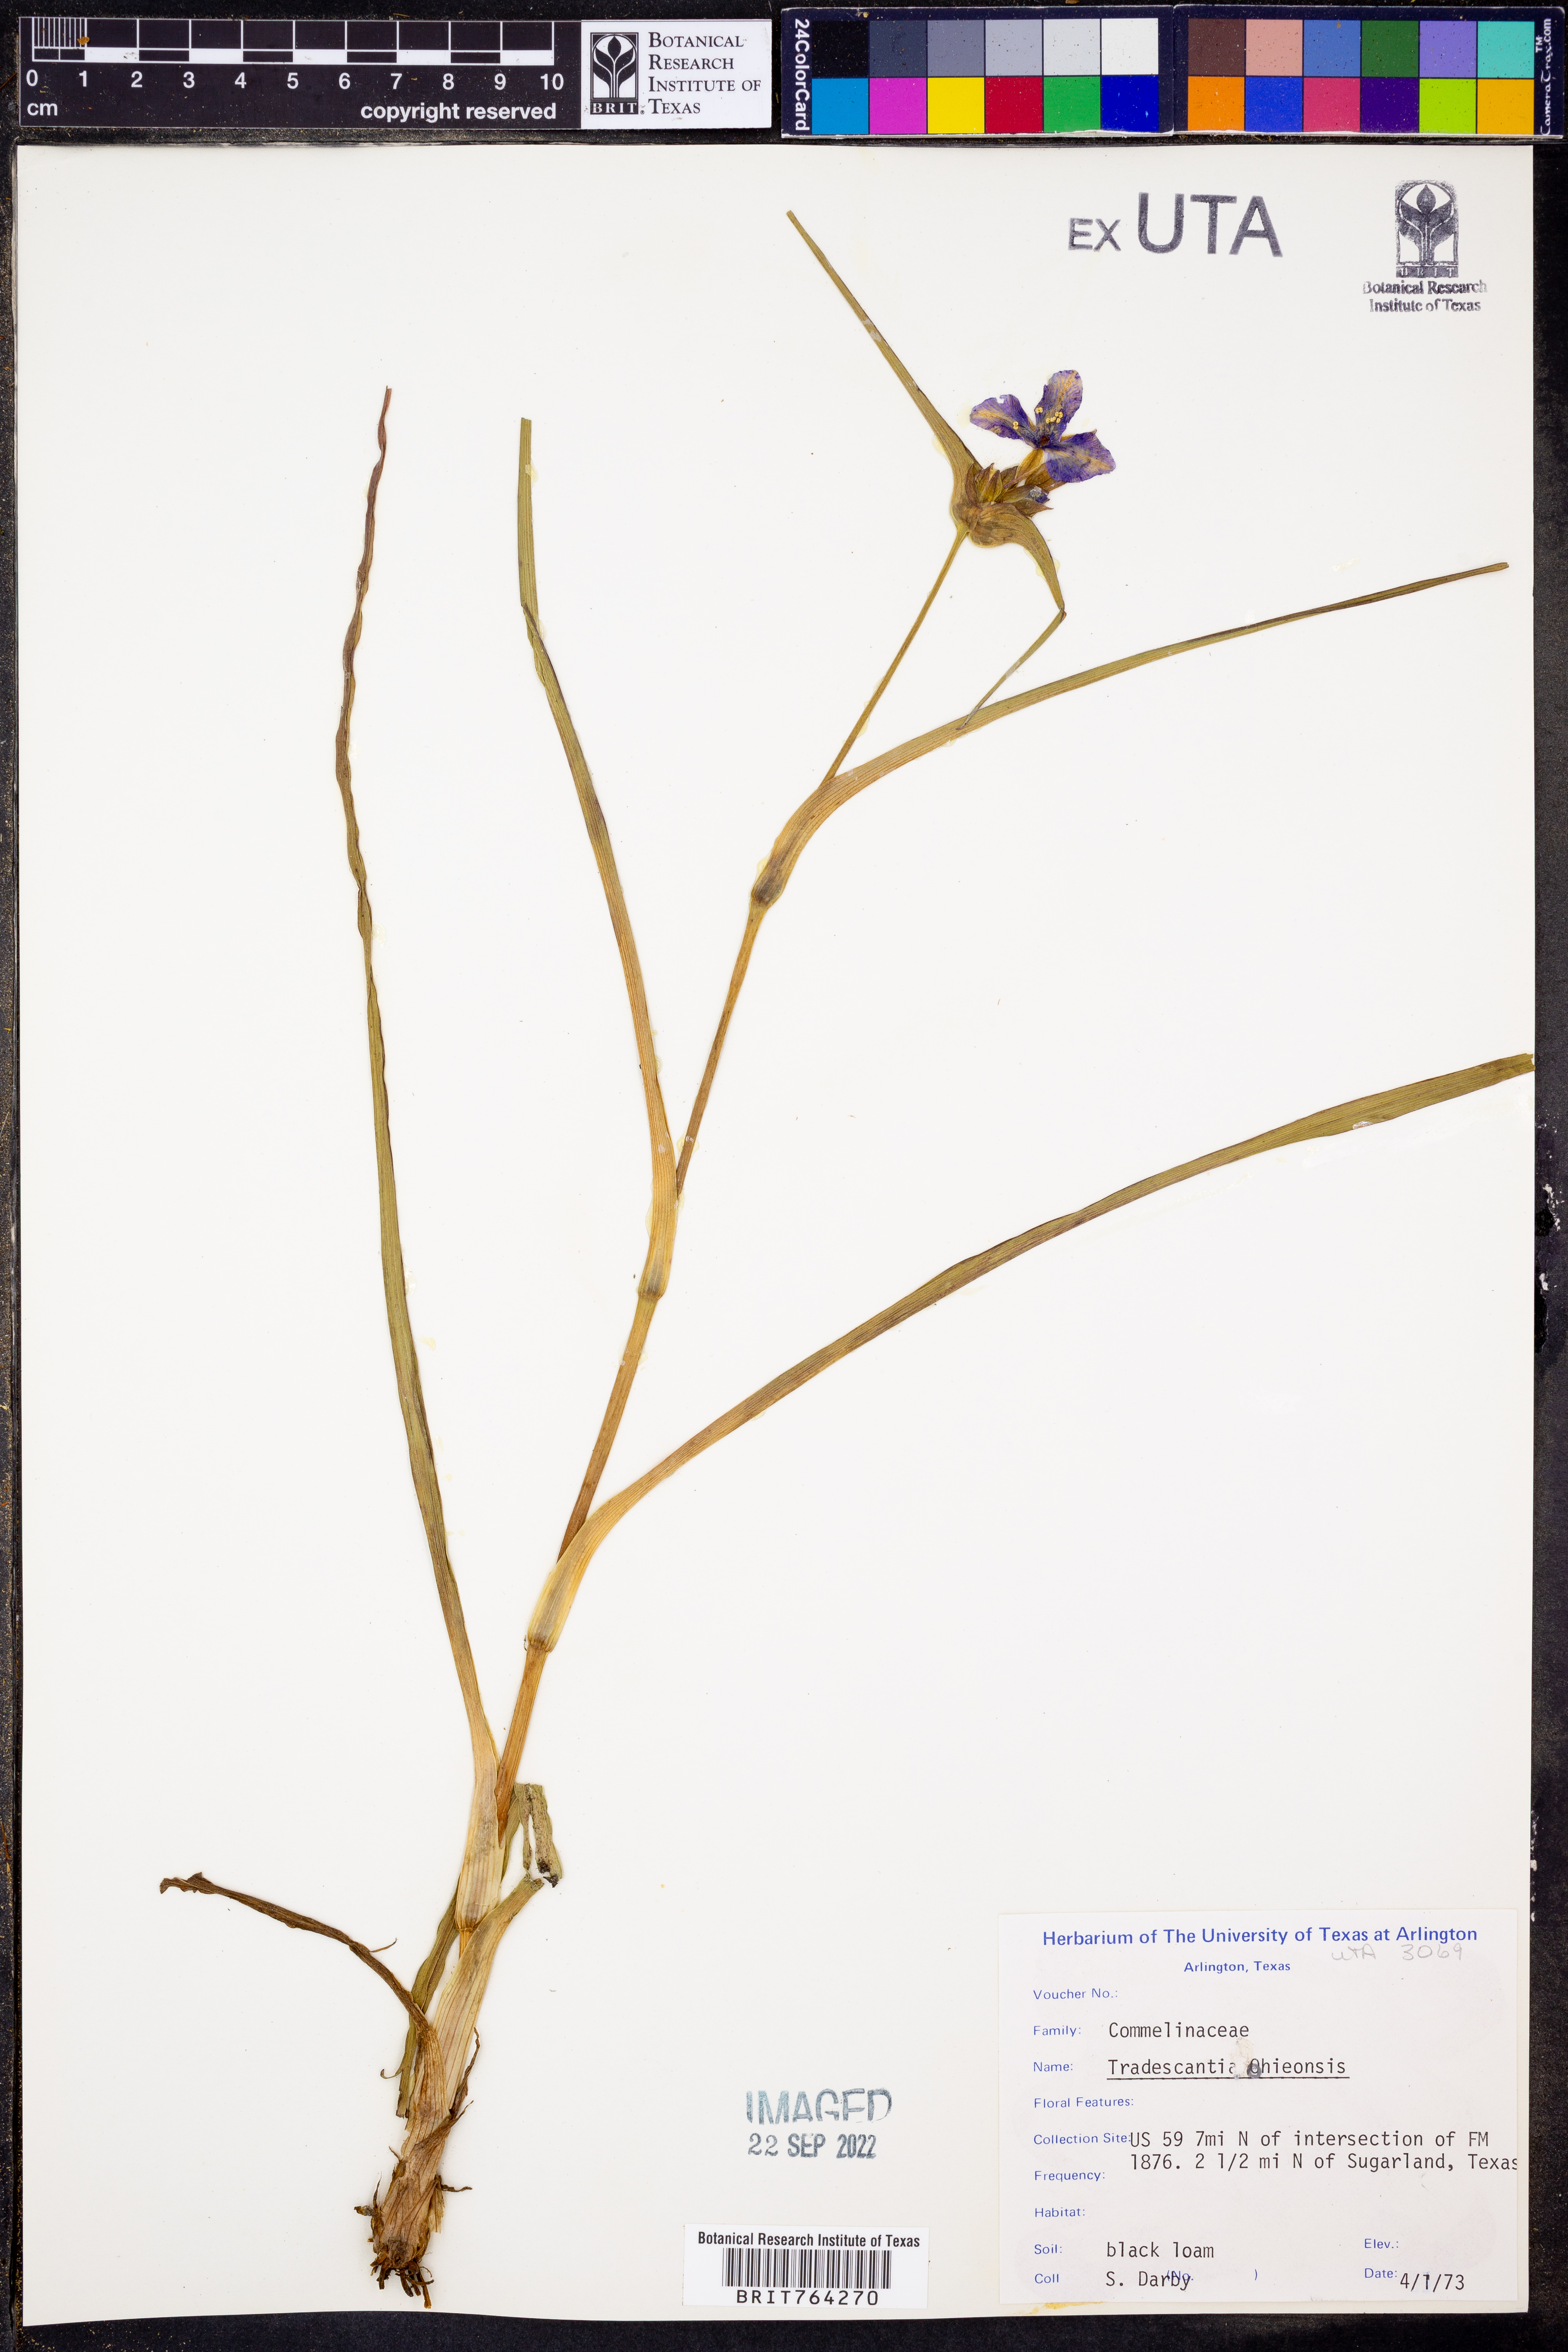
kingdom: Plantae
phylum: Tracheophyta
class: Liliopsida
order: Commelinales
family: Commelinaceae
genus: Tradescantia
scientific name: Tradescantia ohiensis
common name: Ohio spiderwort
